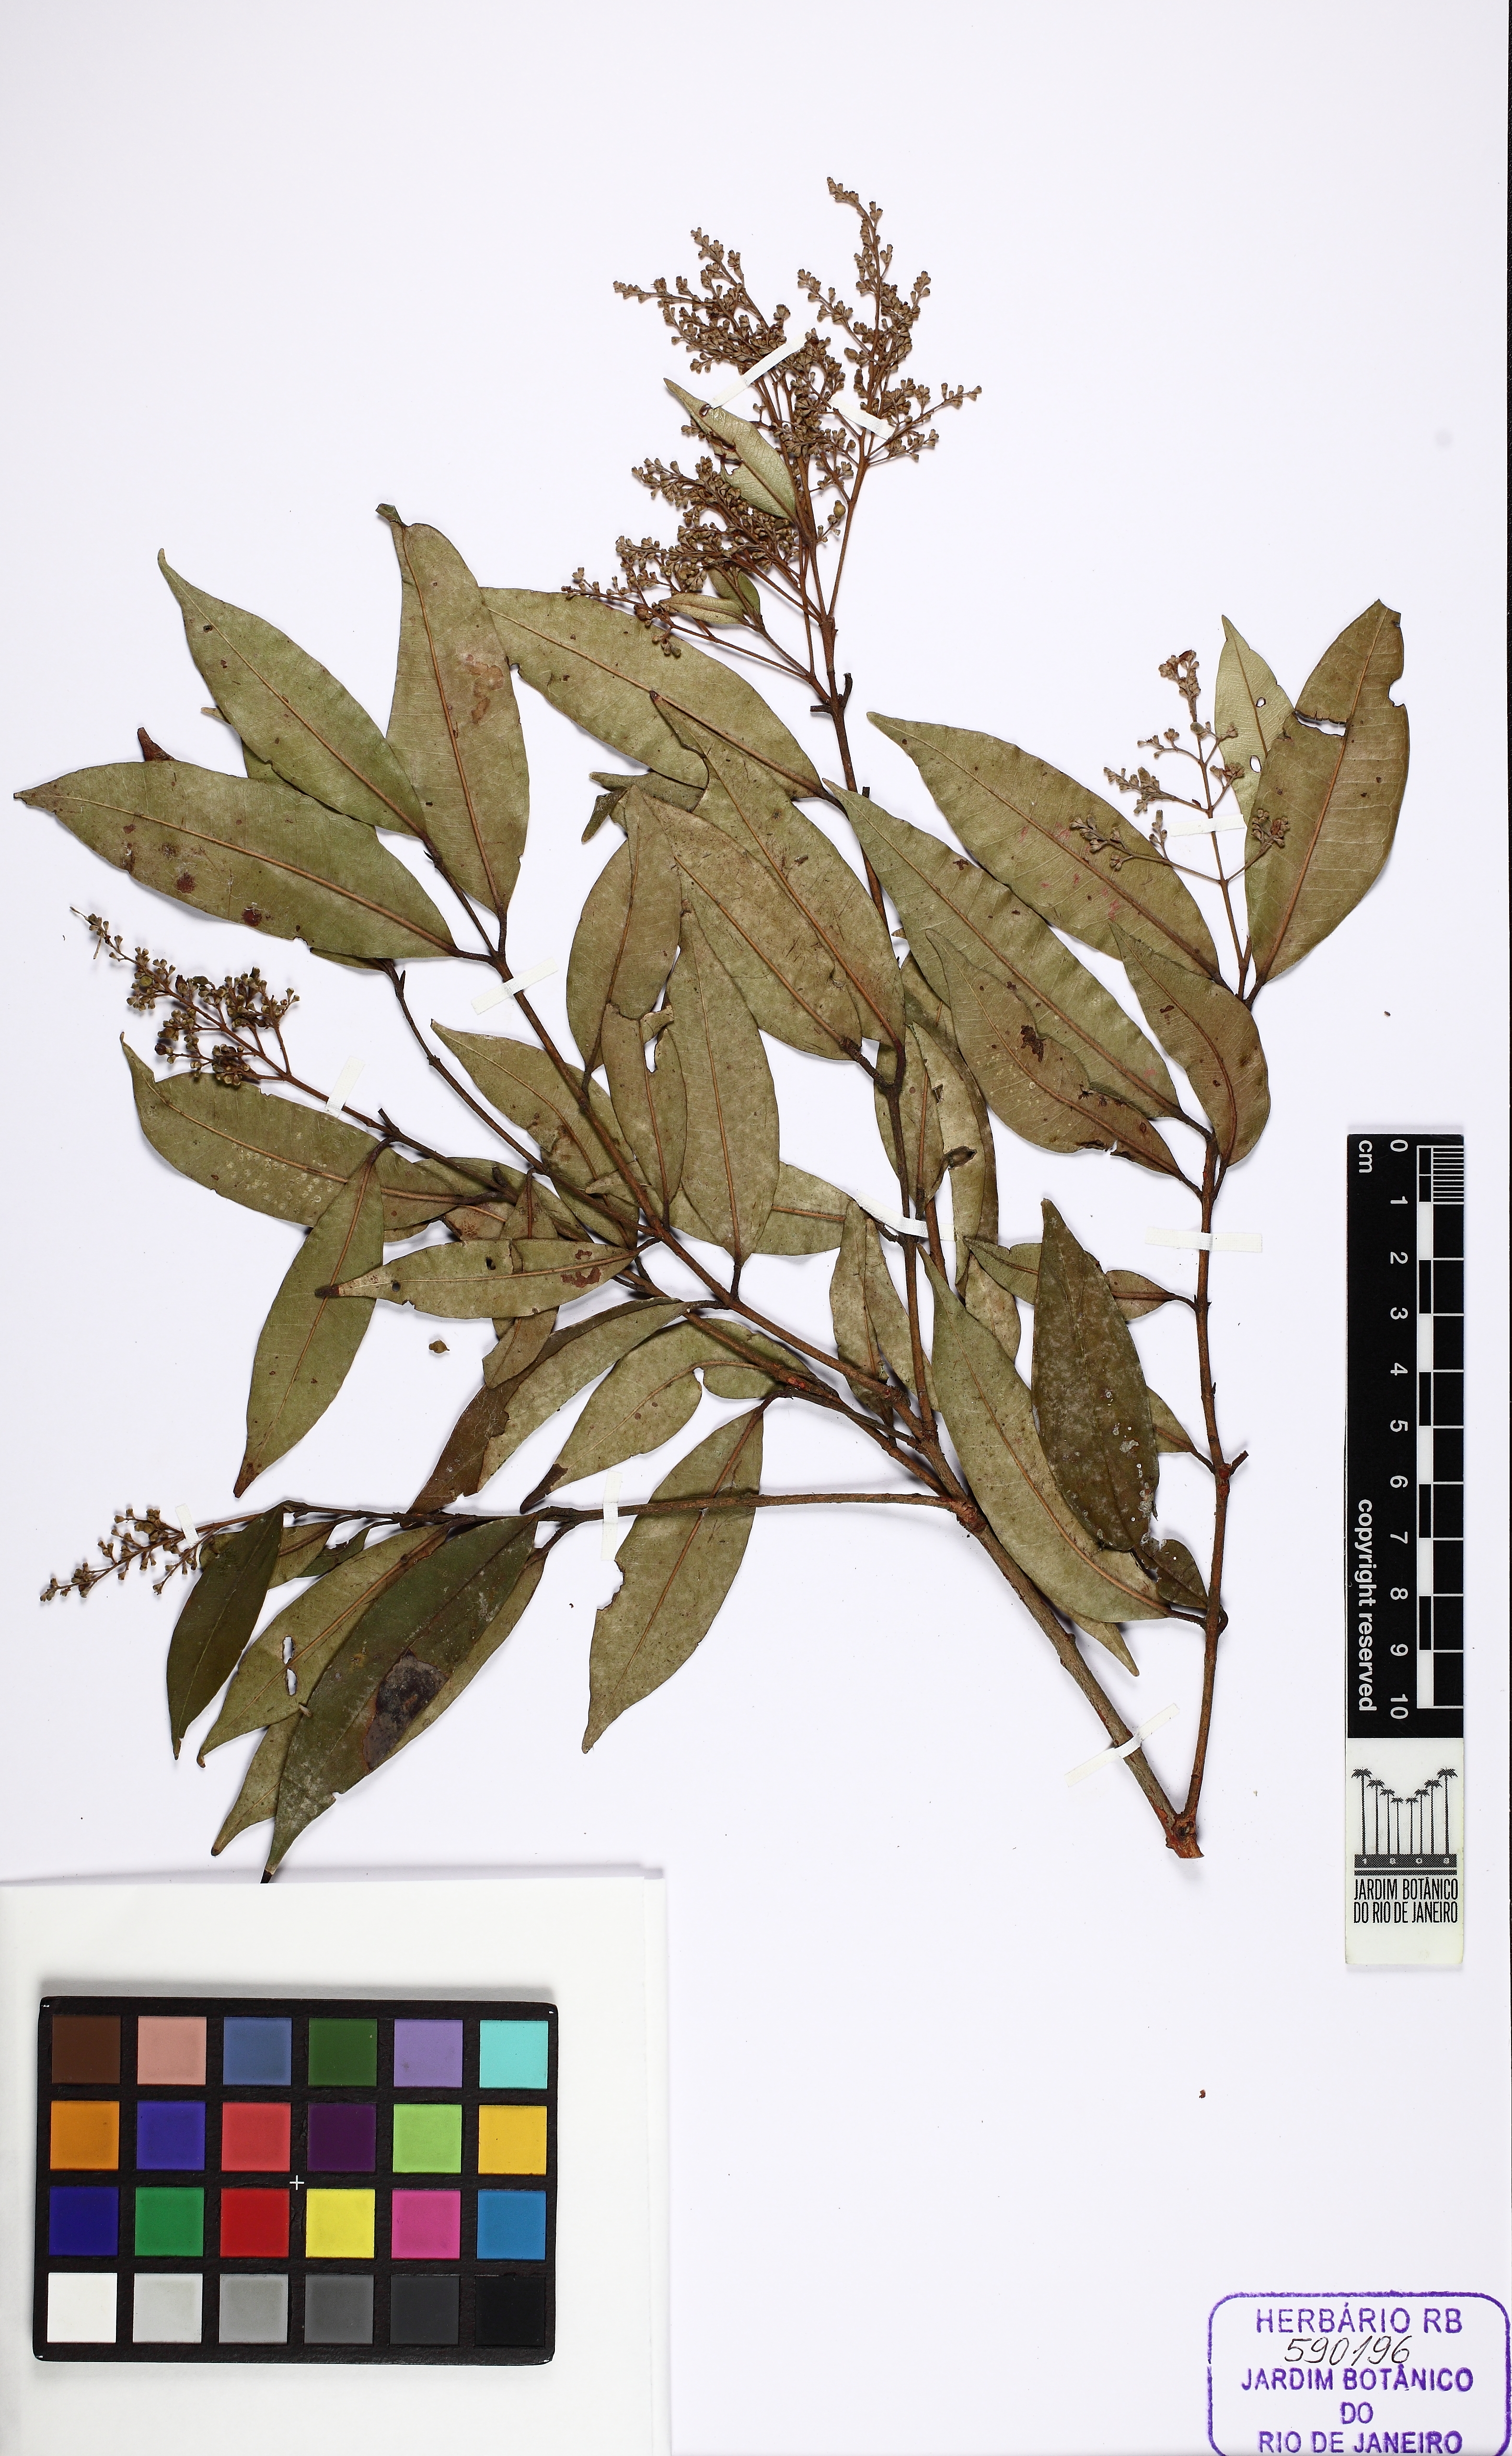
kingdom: Plantae
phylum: Tracheophyta
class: Magnoliopsida
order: Myrtales
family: Myrtaceae
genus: Myrcia
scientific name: Myrcia amazonica
